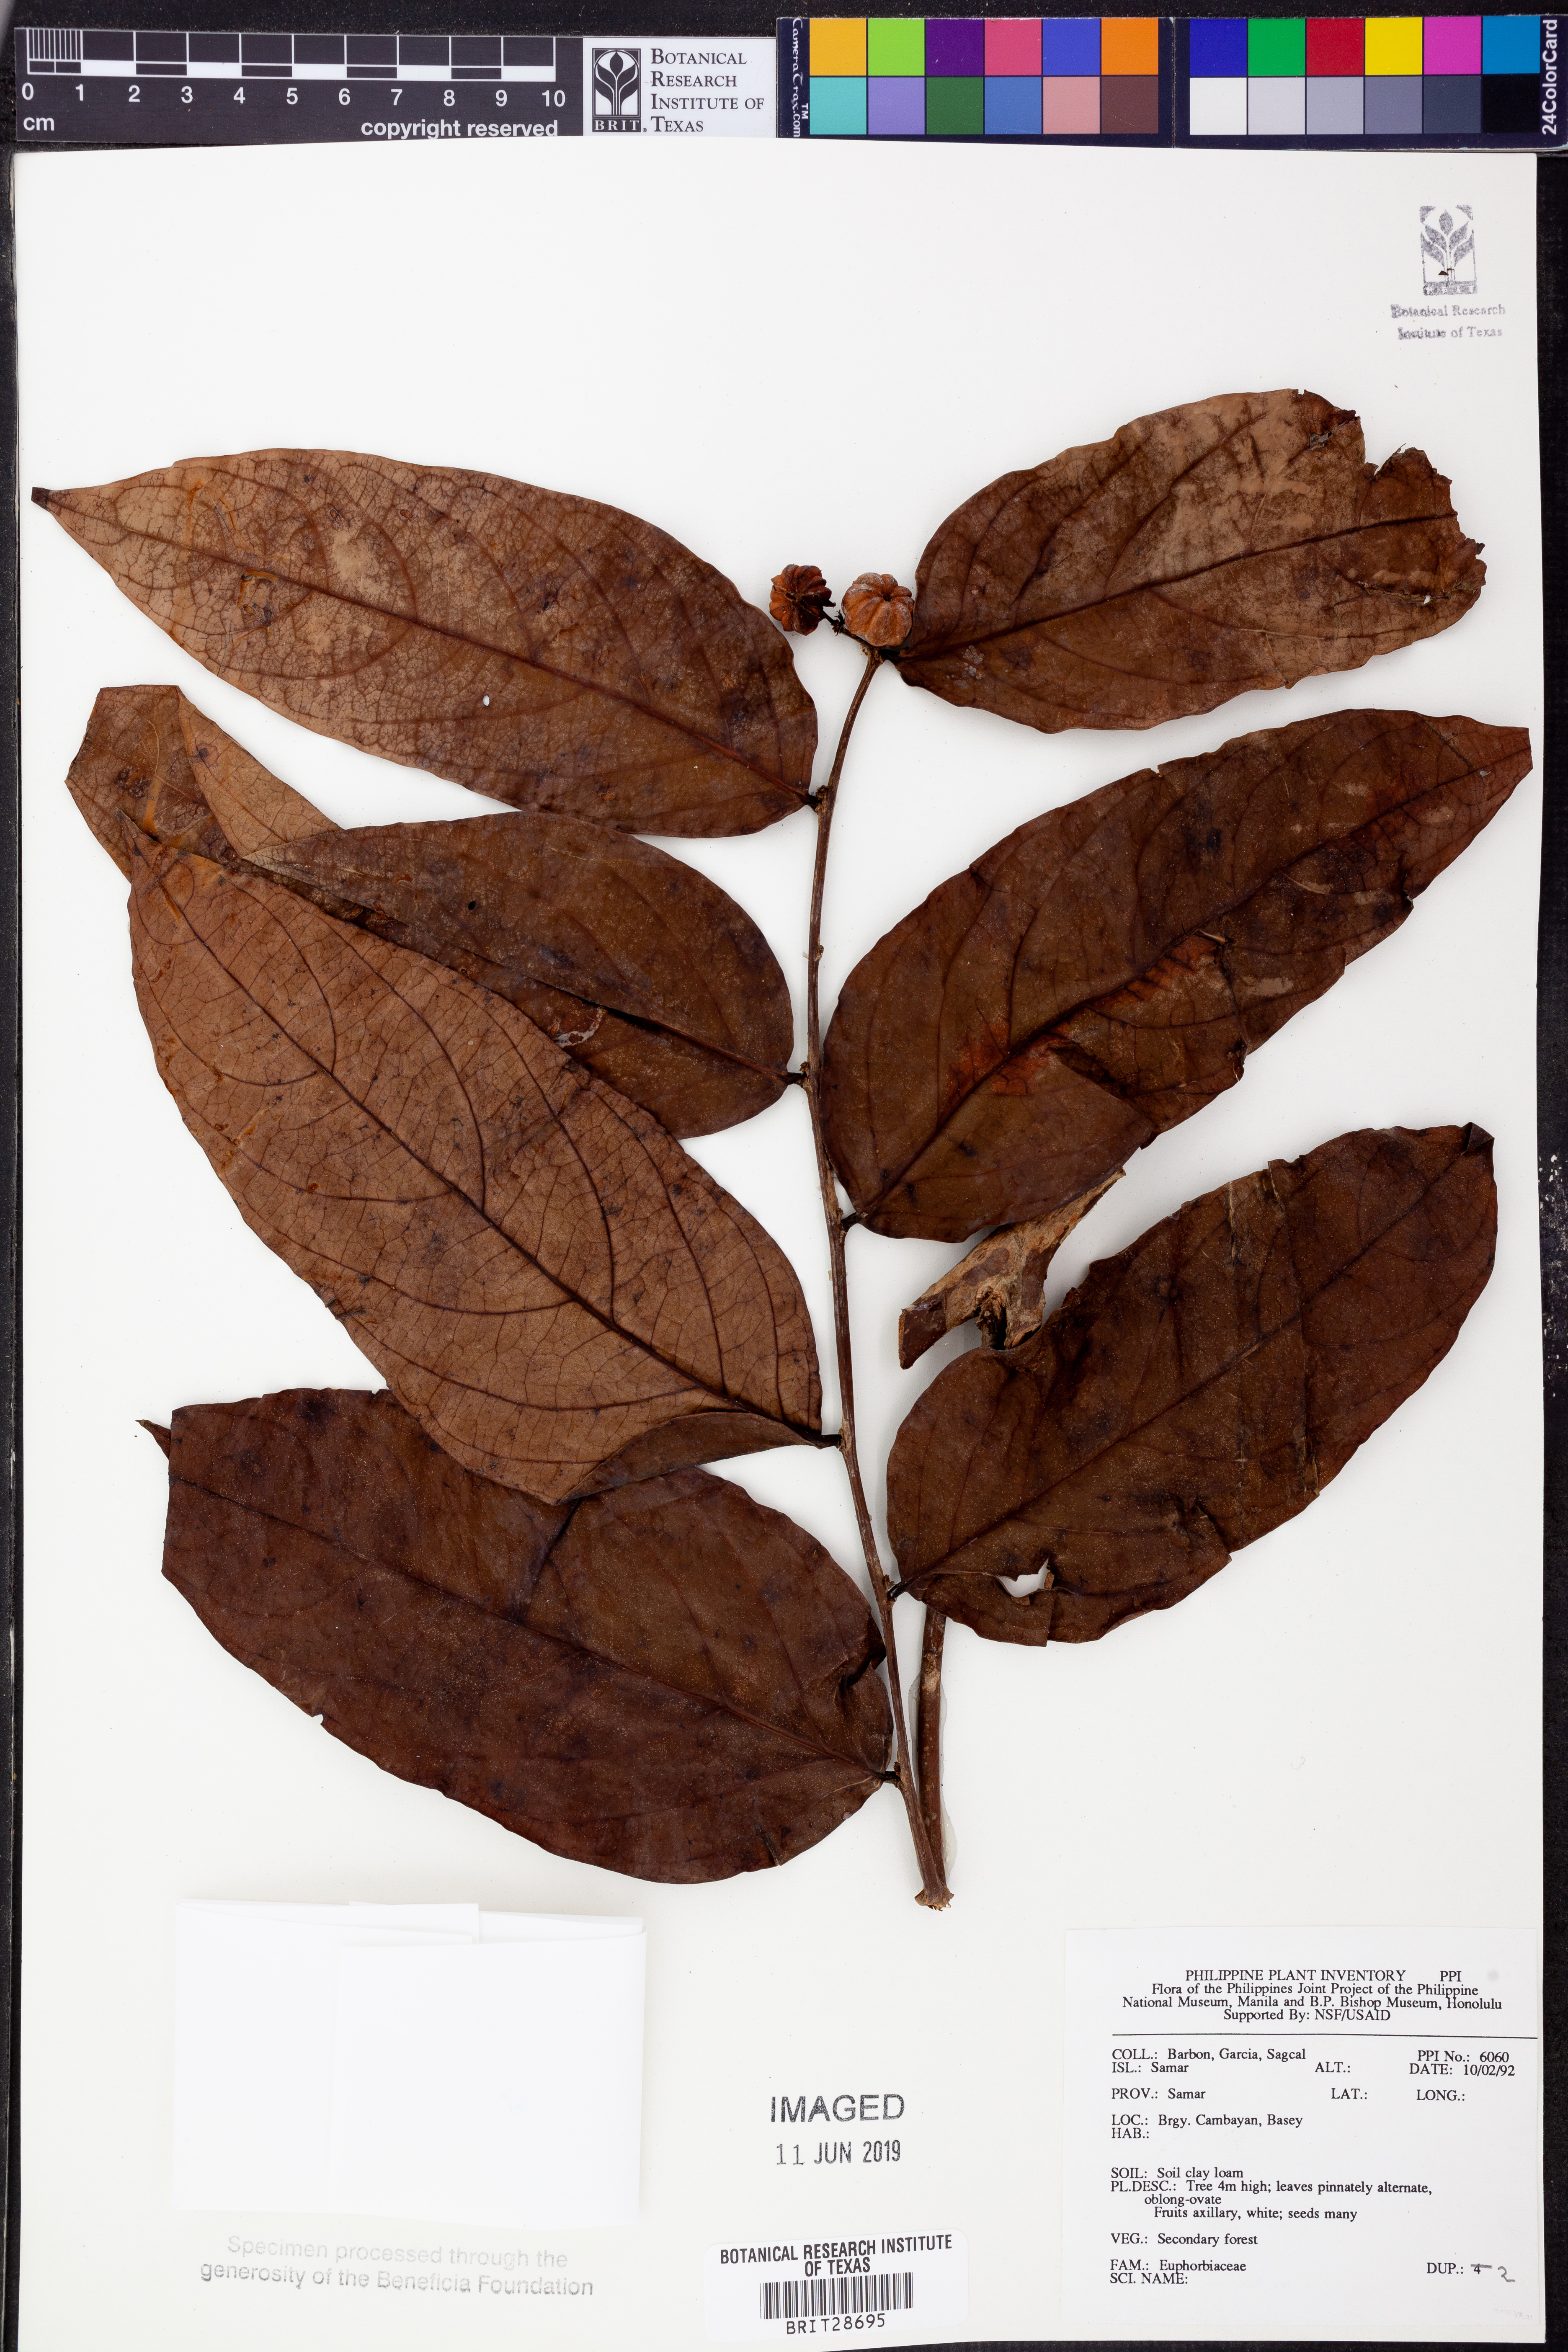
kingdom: Plantae
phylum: Tracheophyta
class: Magnoliopsida
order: Malpighiales
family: Euphorbiaceae
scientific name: Euphorbiaceae
